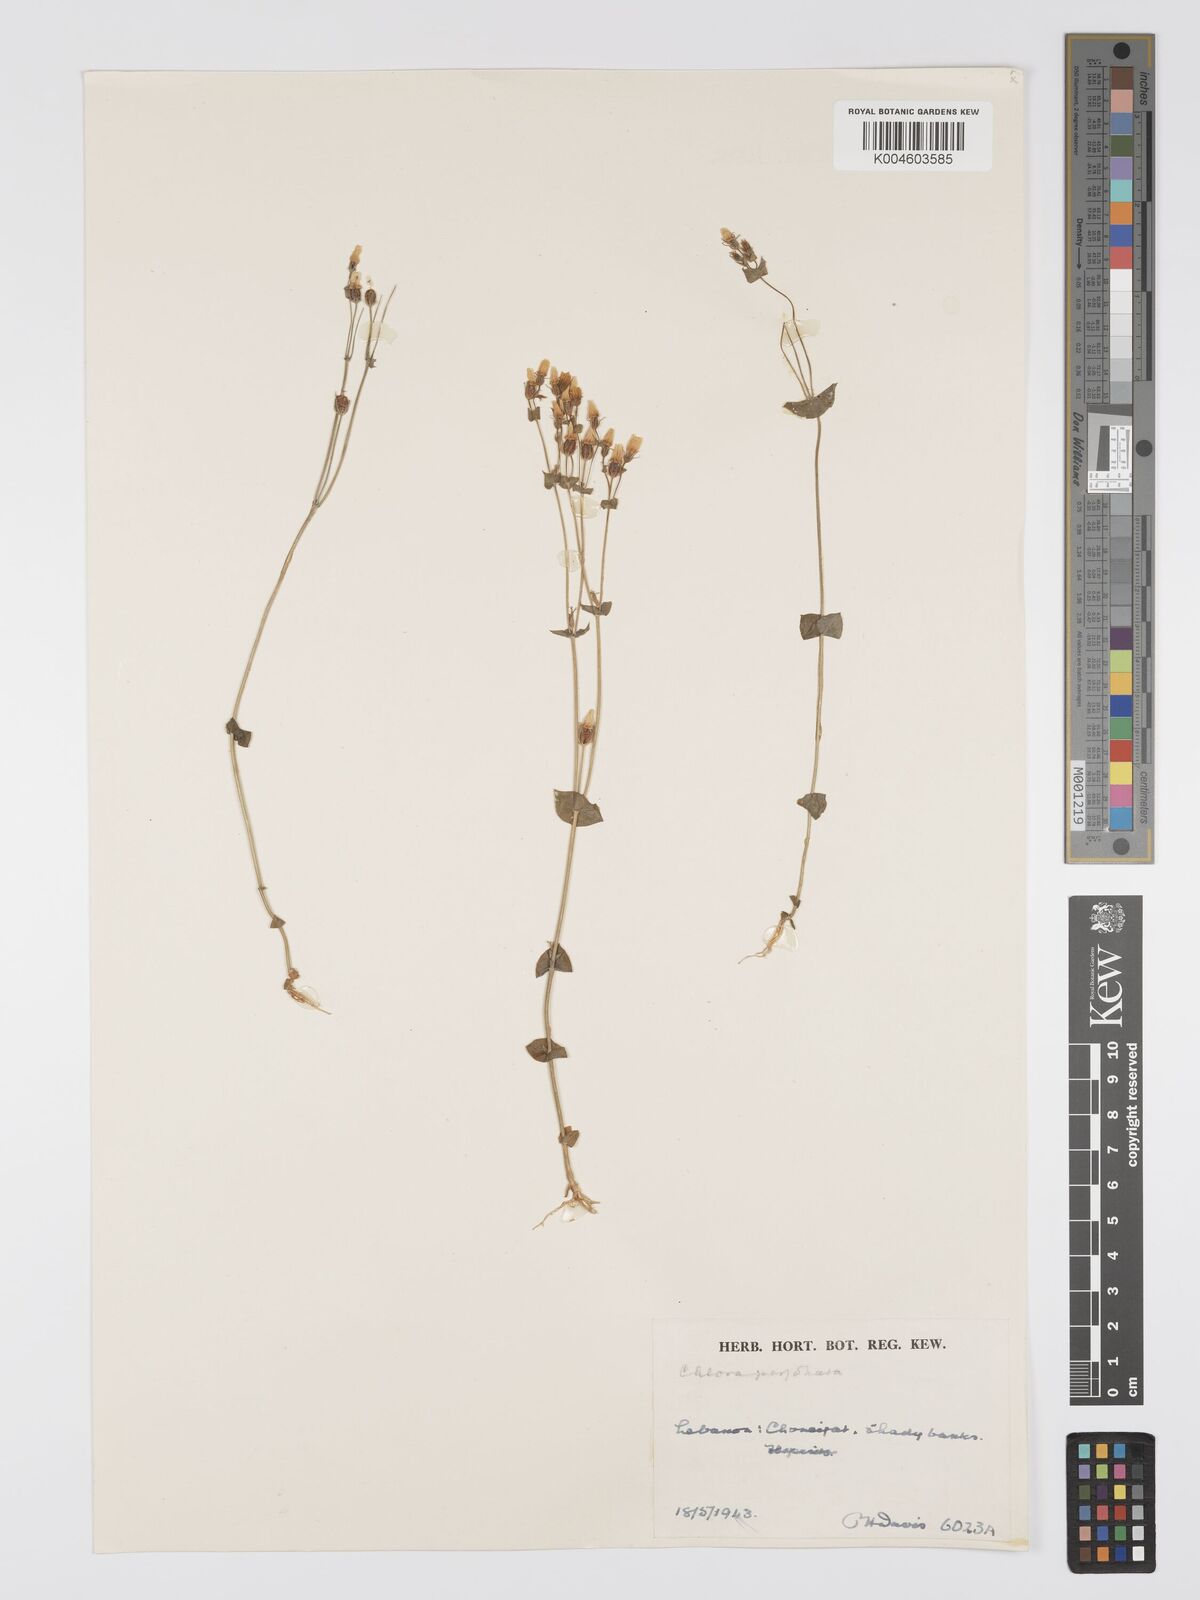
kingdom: Plantae
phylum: Tracheophyta
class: Magnoliopsida
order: Gentianales
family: Gentianaceae
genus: Blackstonia
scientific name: Blackstonia perfoliata
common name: Yellow-wort
